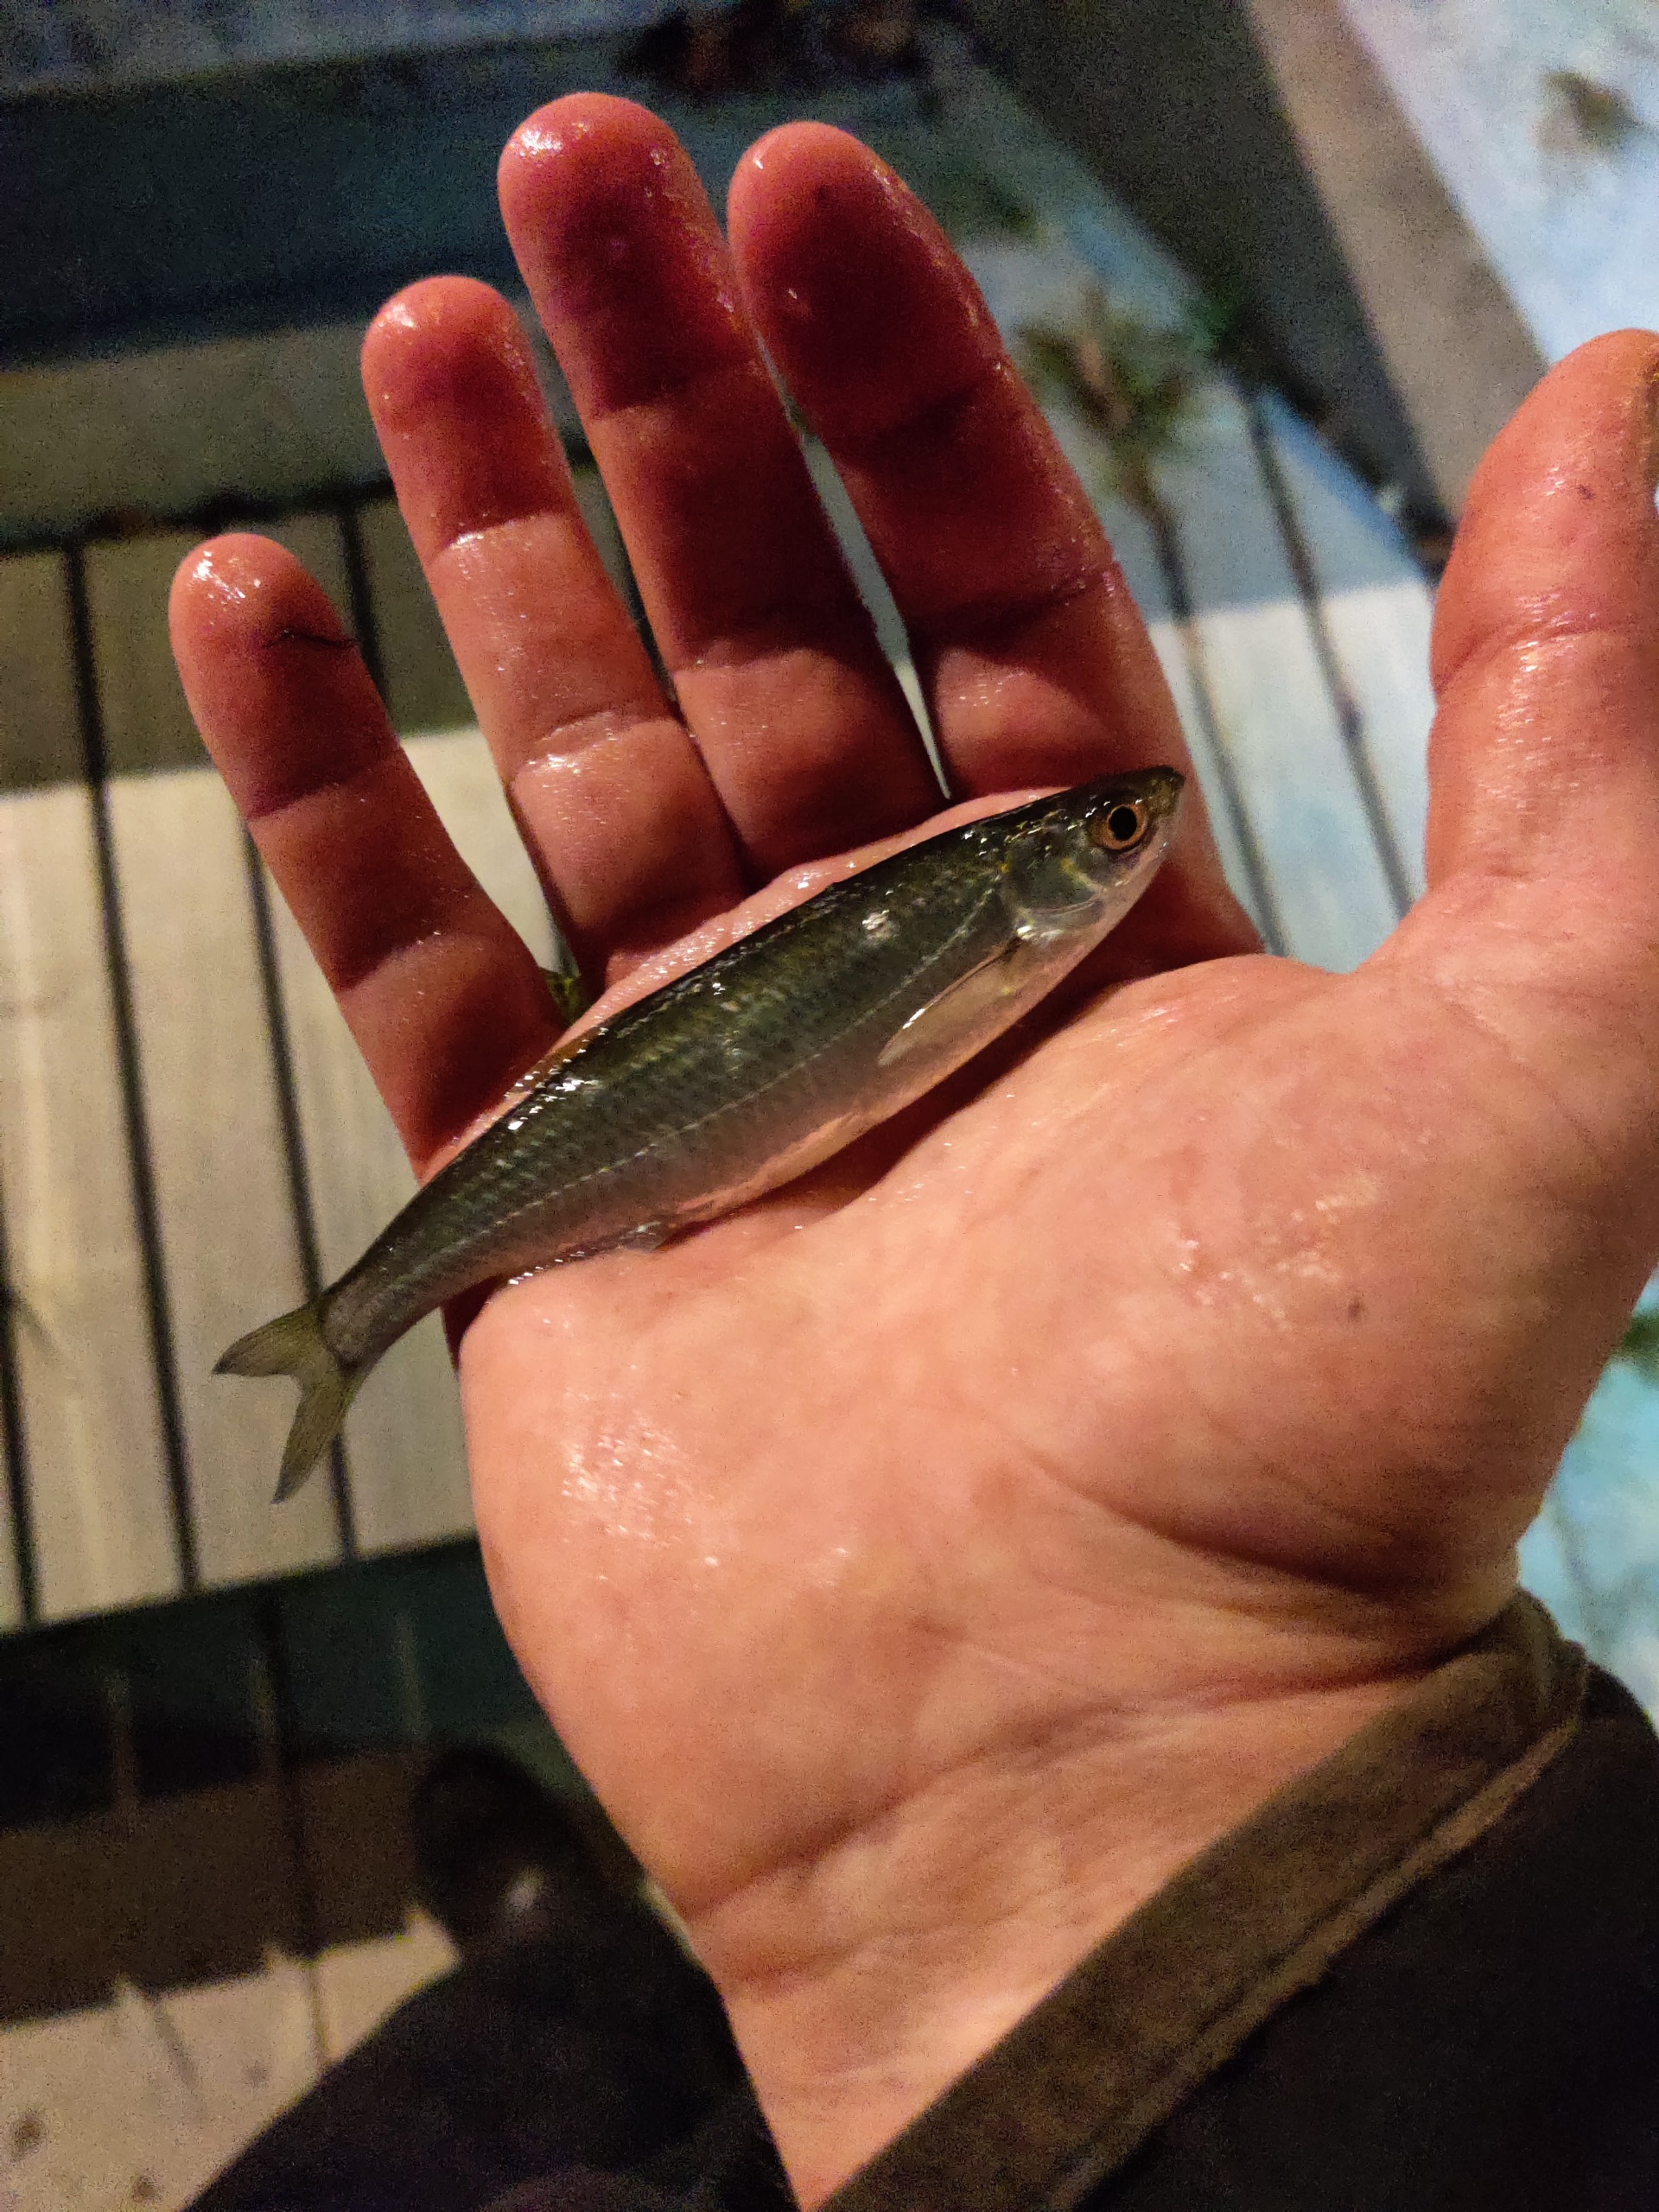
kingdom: Animalia
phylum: Chordata
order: Cypriniformes
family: Cyprinidae
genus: Alburnus
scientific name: Alburnus alburnus
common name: Løje
